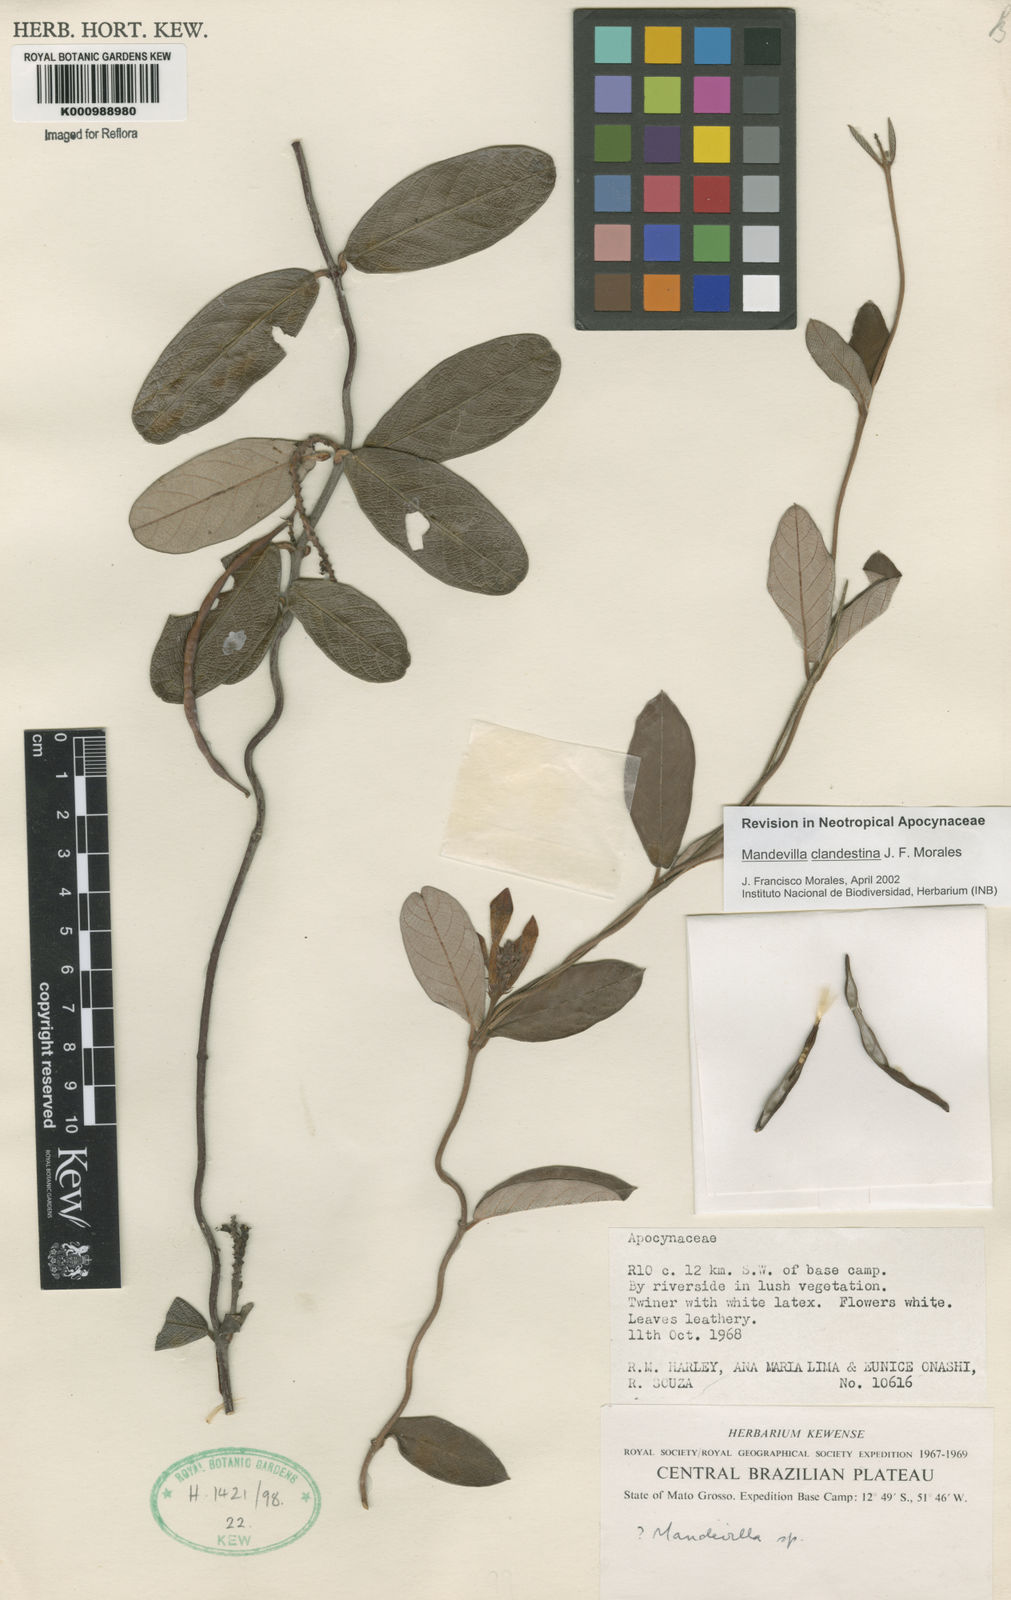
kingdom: Plantae
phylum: Tracheophyta
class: Magnoliopsida
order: Gentianales
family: Apocynaceae
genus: Mandevilla
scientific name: Mandevilla clandestina
